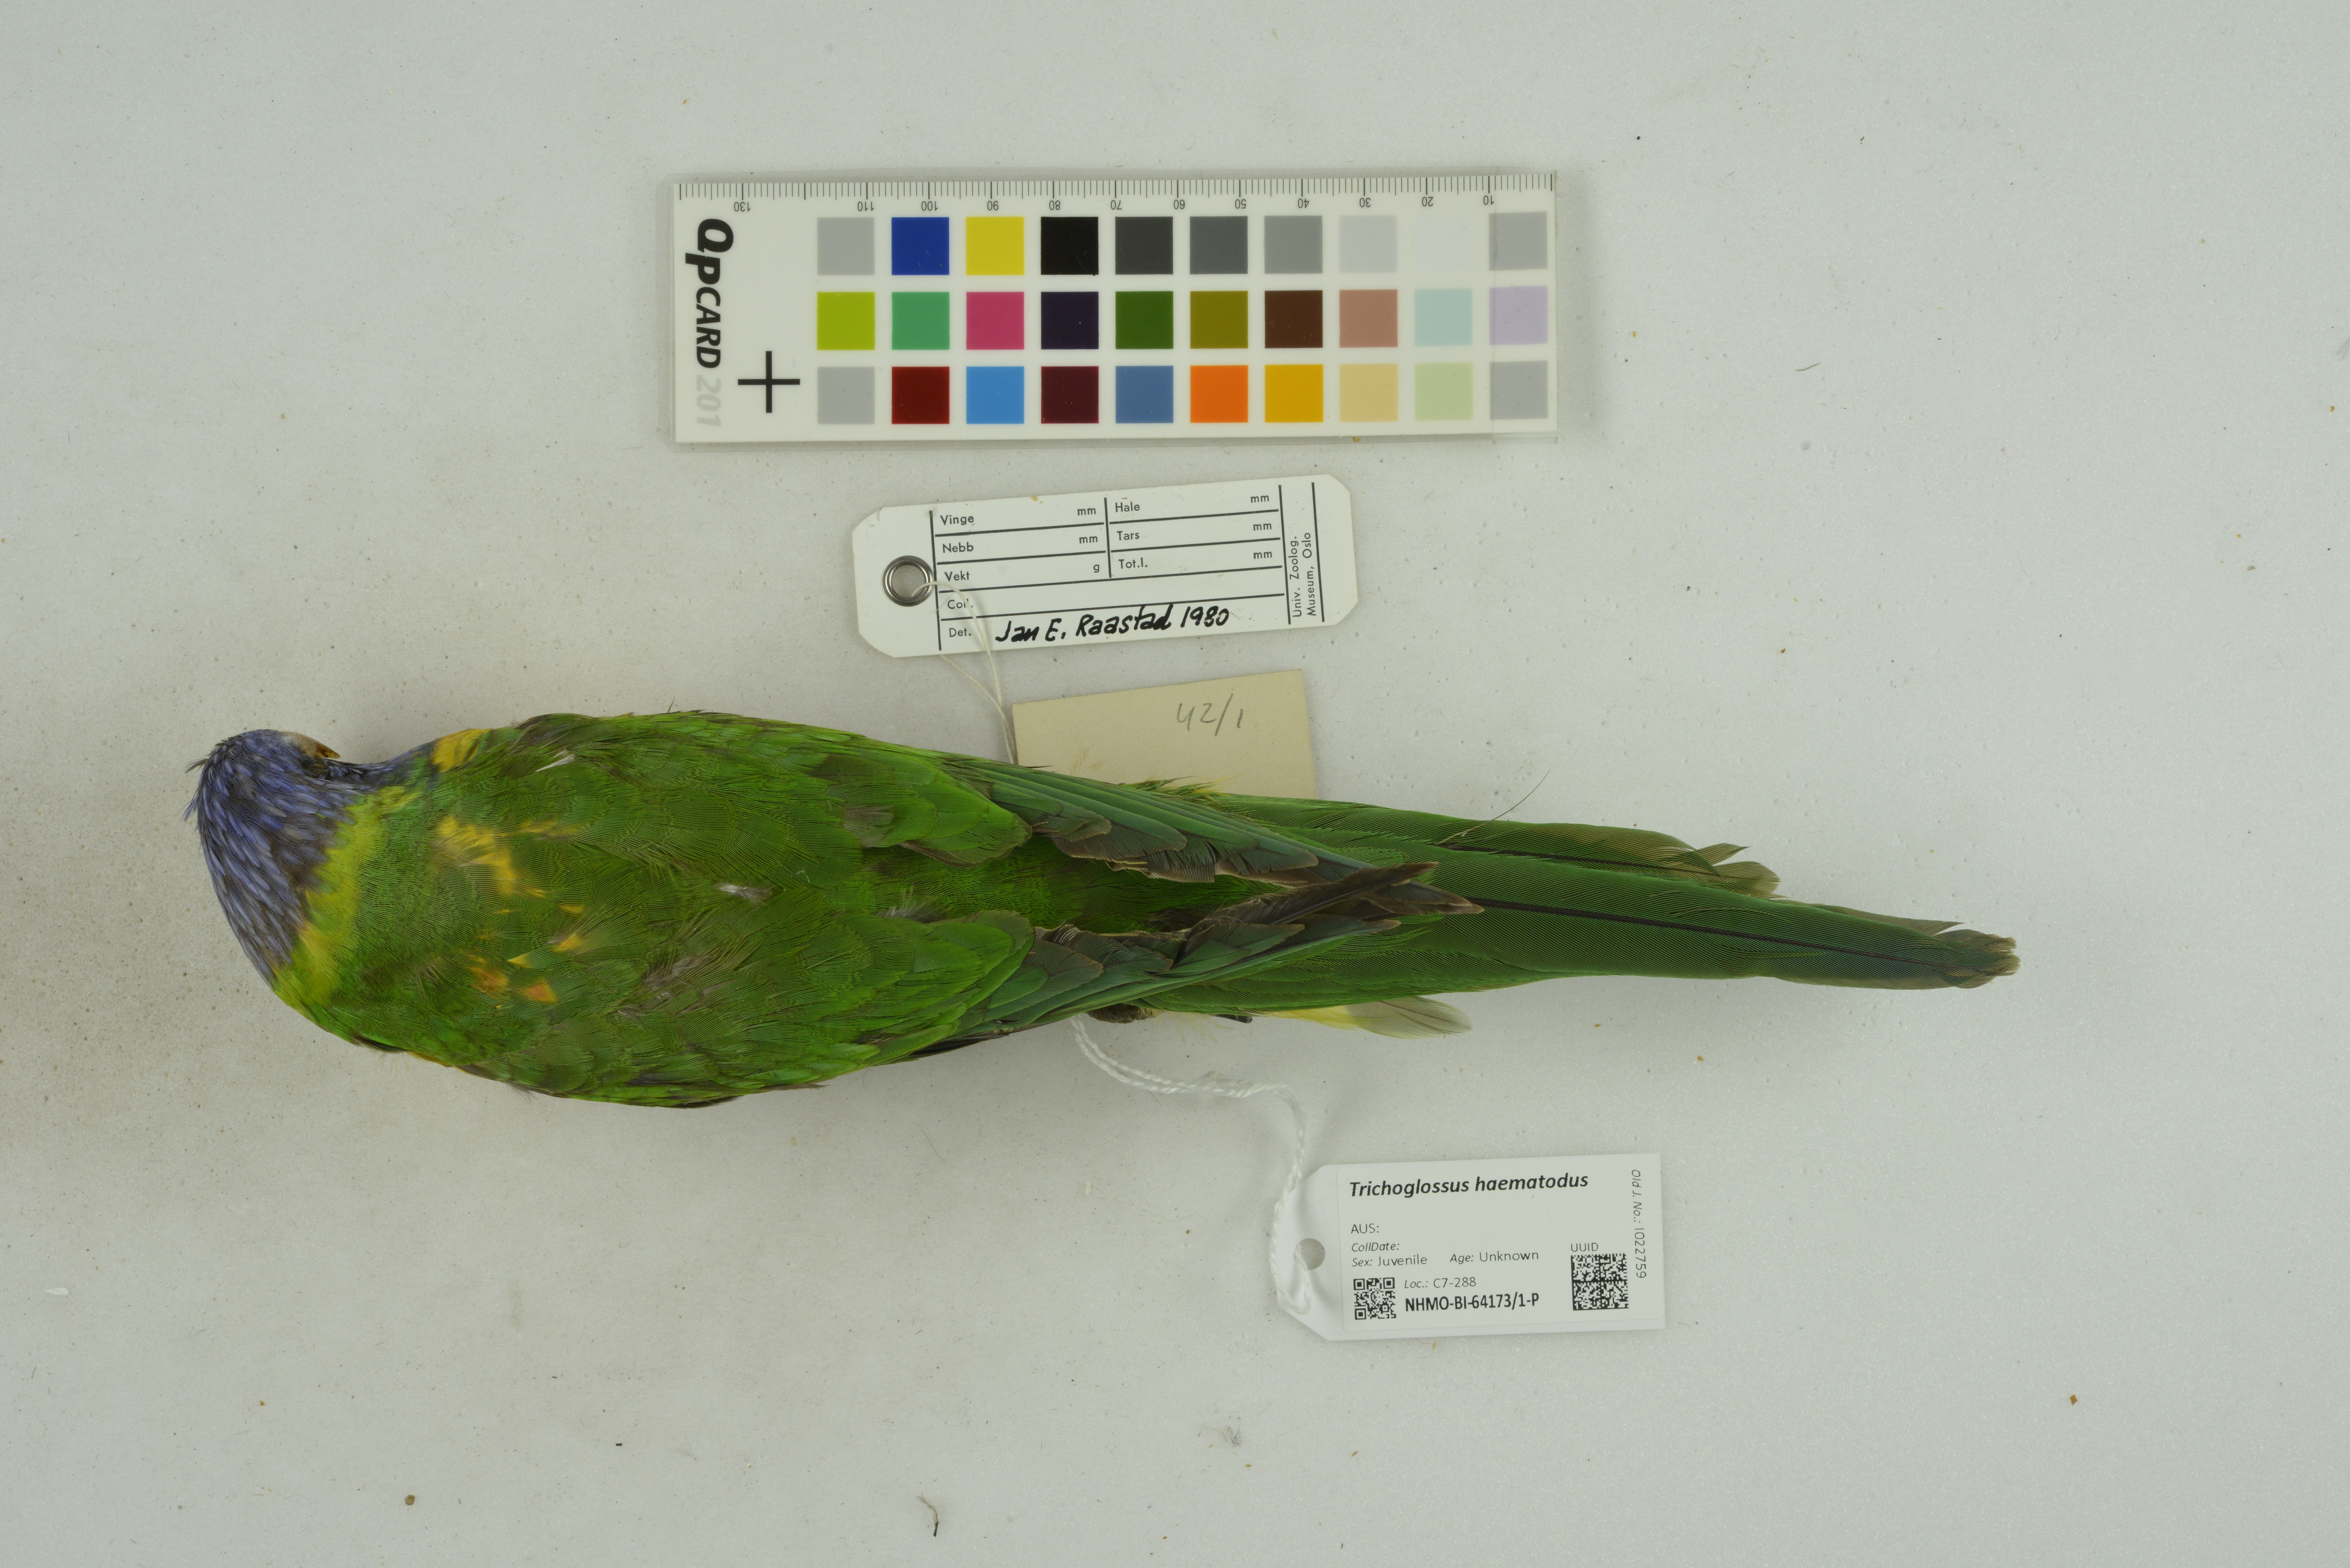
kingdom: Animalia
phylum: Chordata
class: Aves
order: Psittaciformes
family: Psittacidae
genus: Trichoglossus
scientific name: Trichoglossus haematodus
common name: Coconut lorikeet
